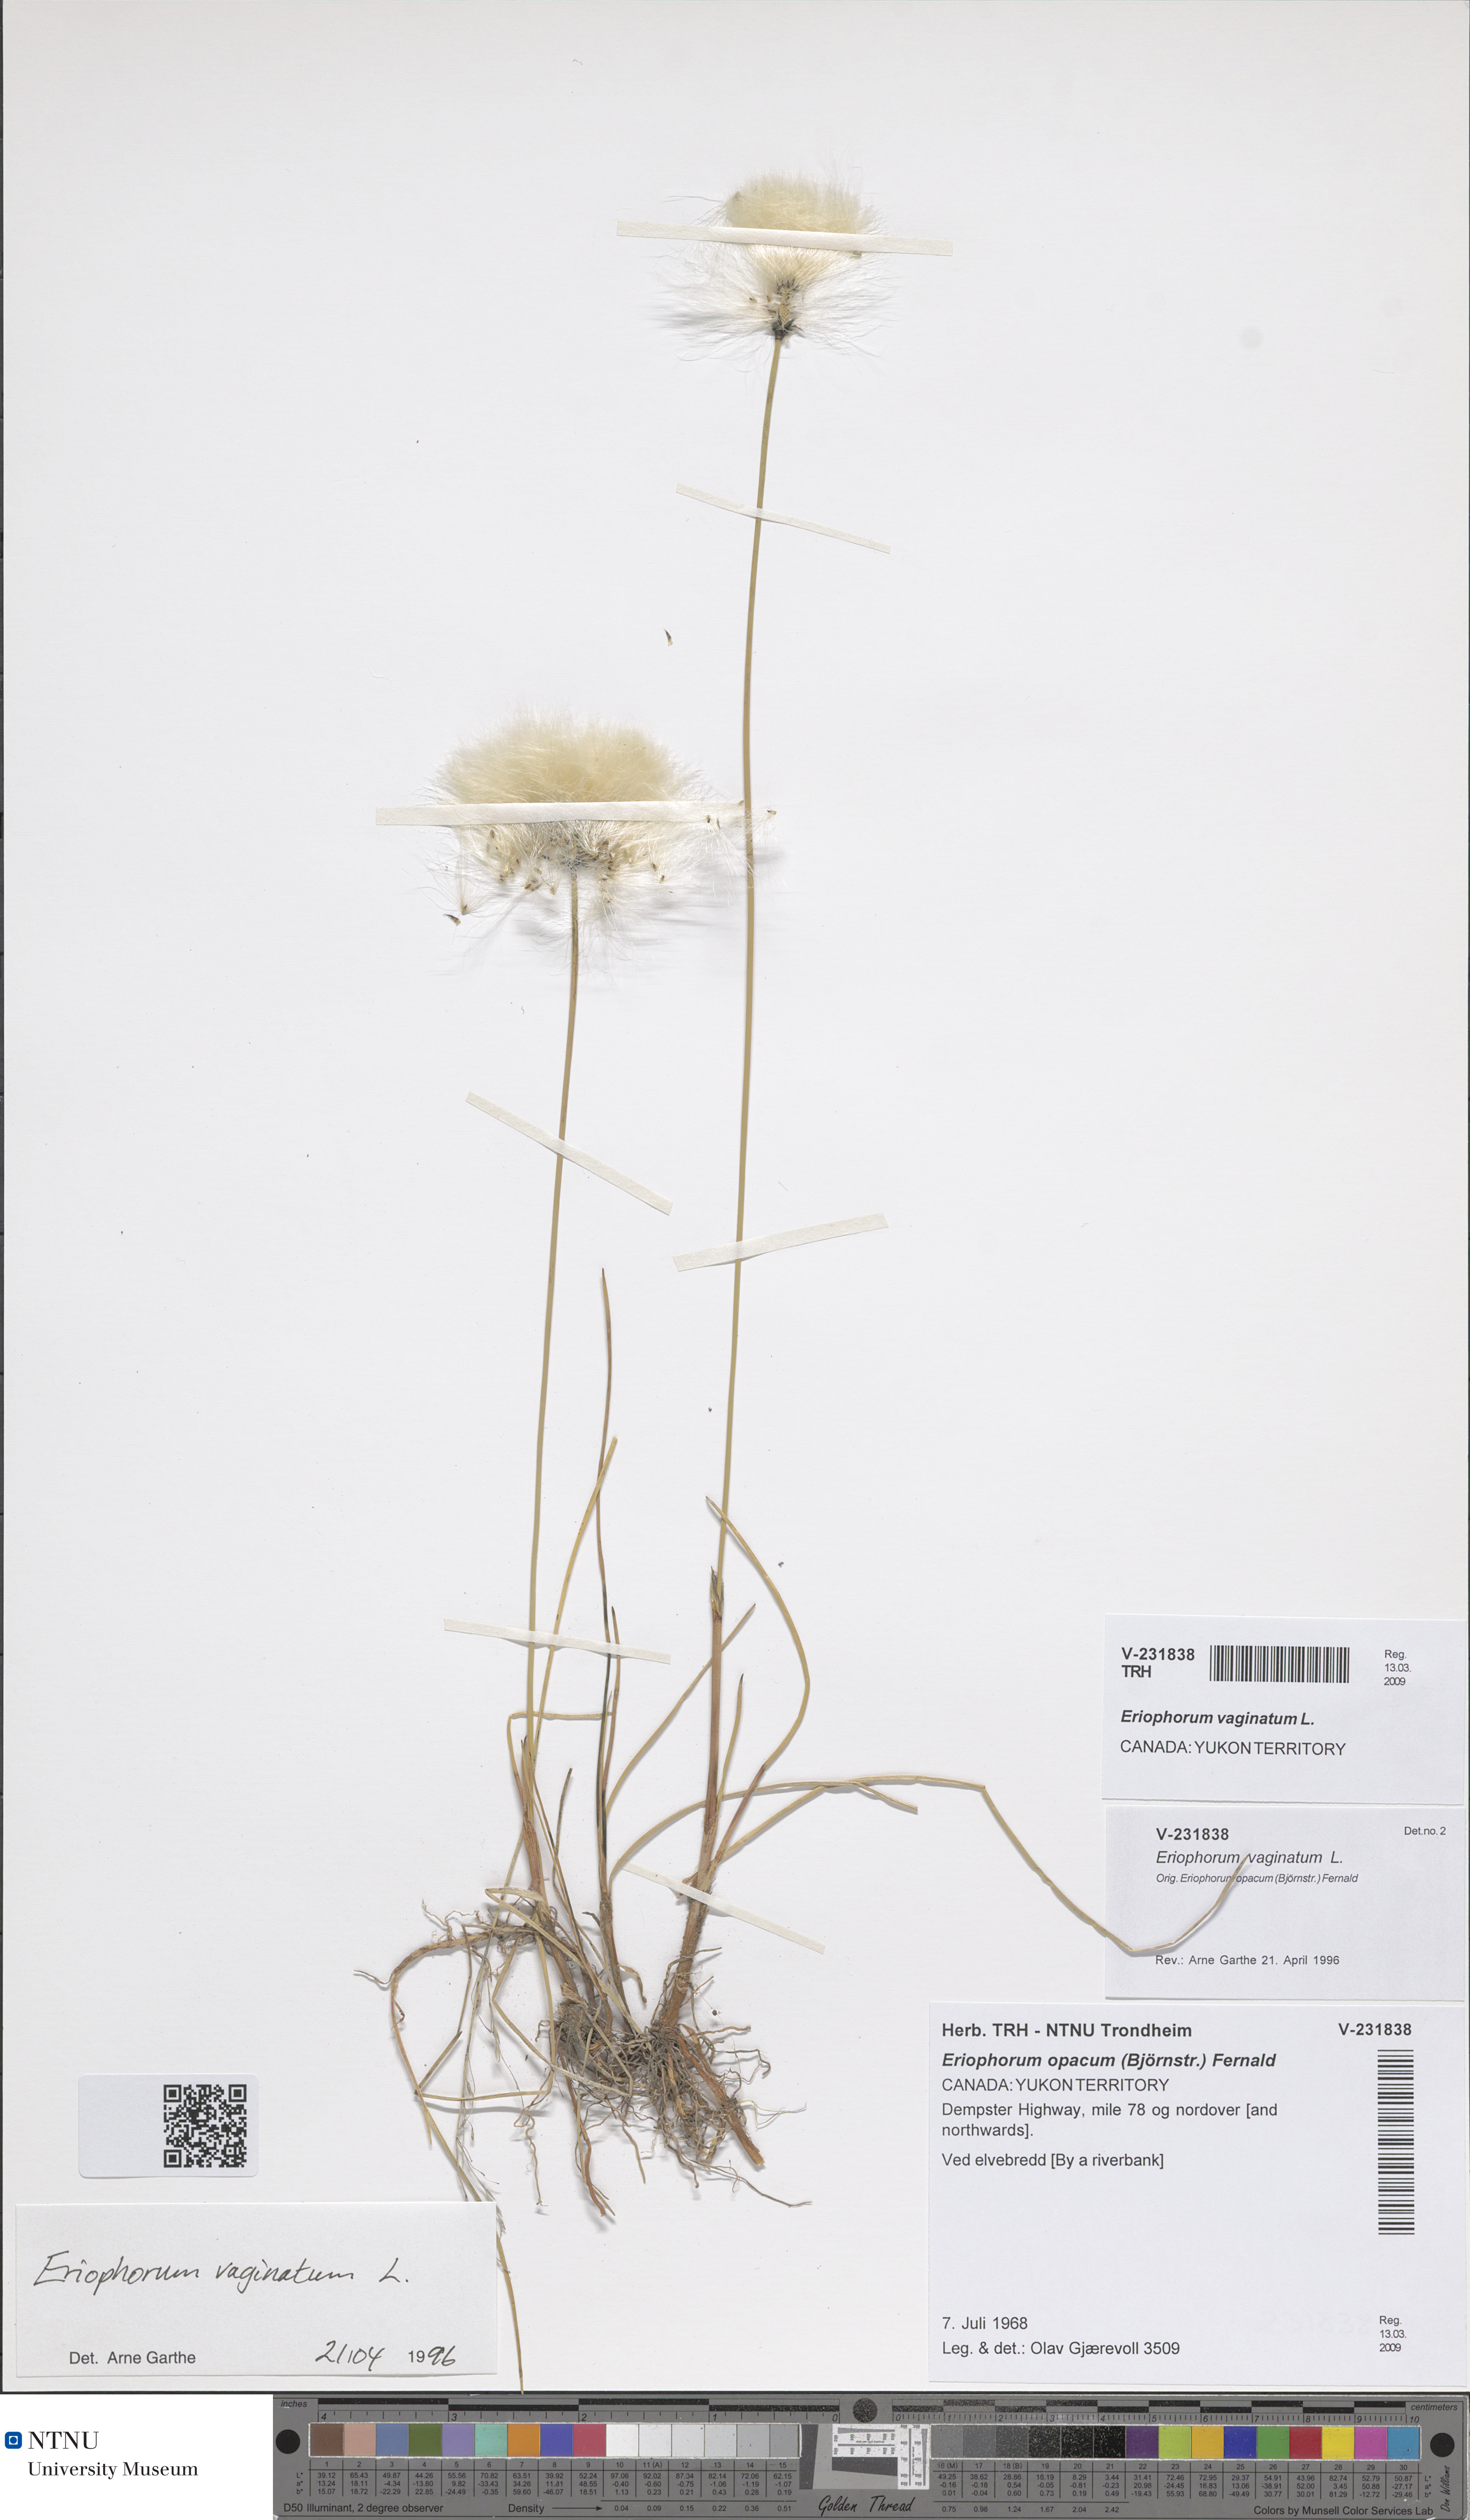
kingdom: Plantae
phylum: Tracheophyta
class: Liliopsida
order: Poales
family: Cyperaceae
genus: Eriophorum
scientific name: Eriophorum vaginatum
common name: Hare's-tail cottongrass
